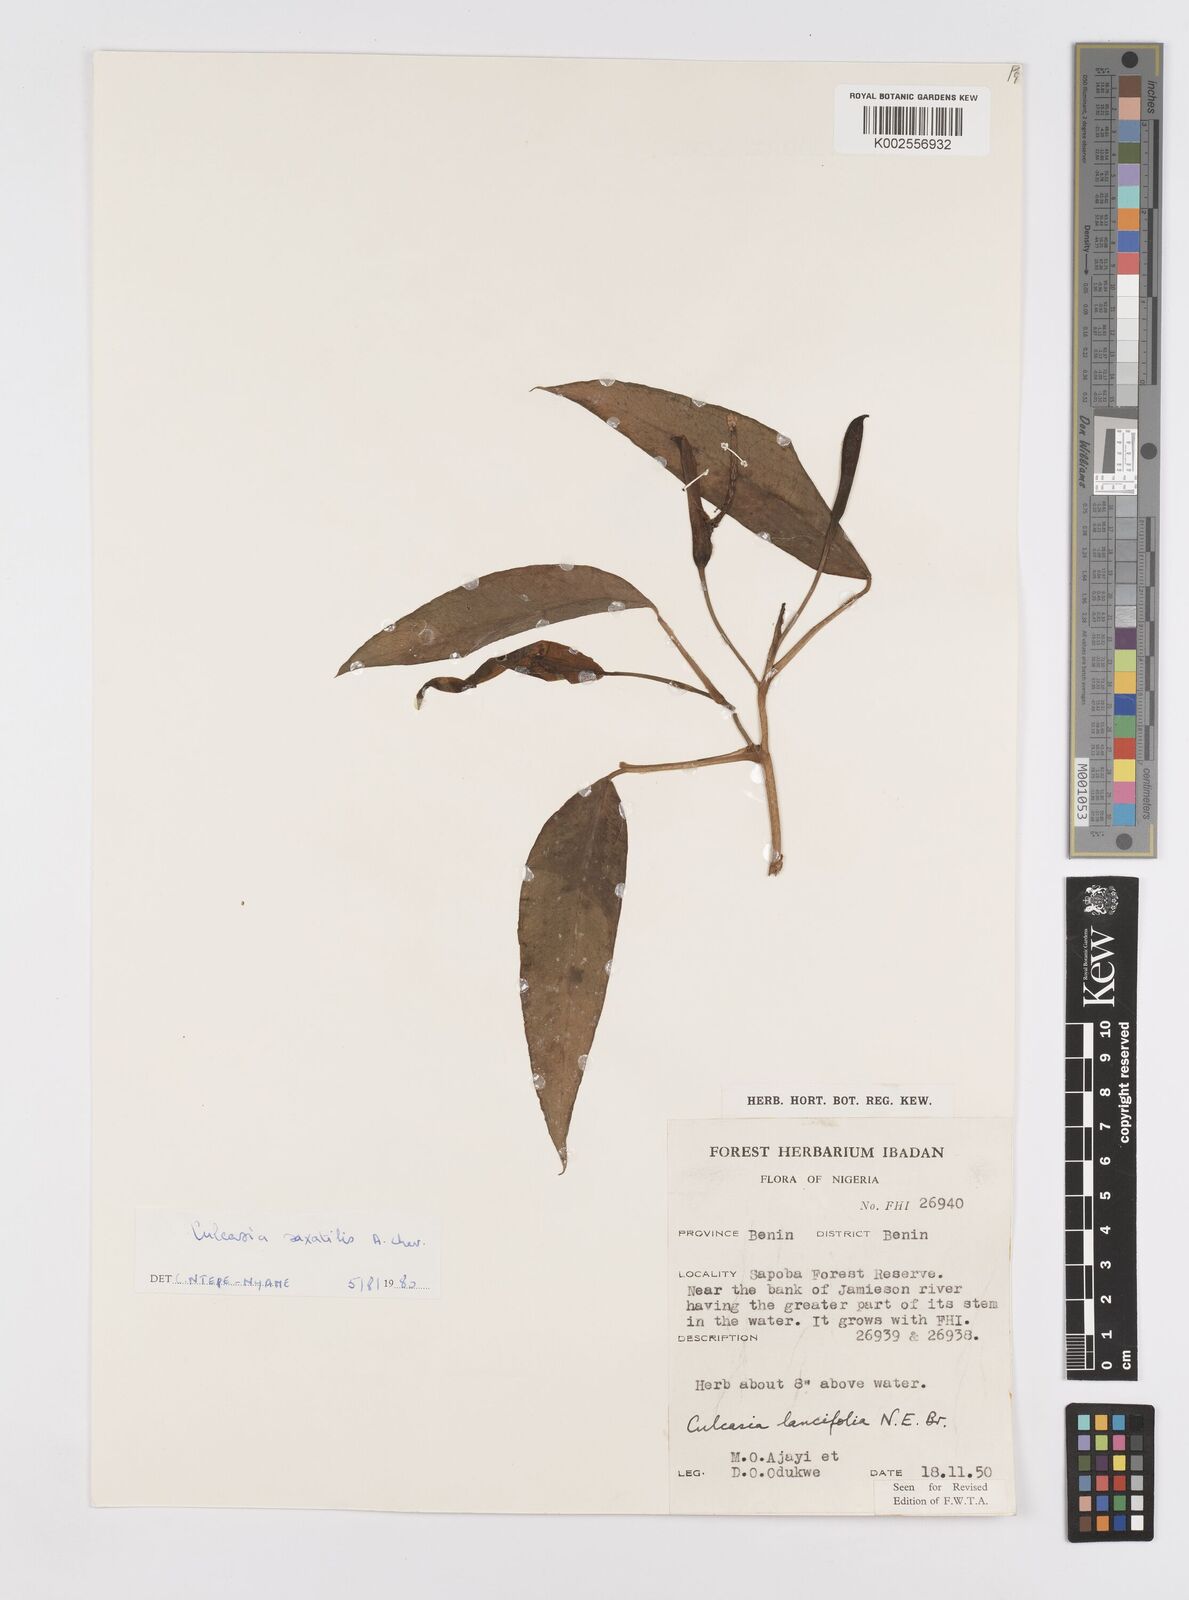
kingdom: Plantae
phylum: Tracheophyta
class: Liliopsida
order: Alismatales
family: Araceae
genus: Culcasia
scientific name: Culcasia scandens
